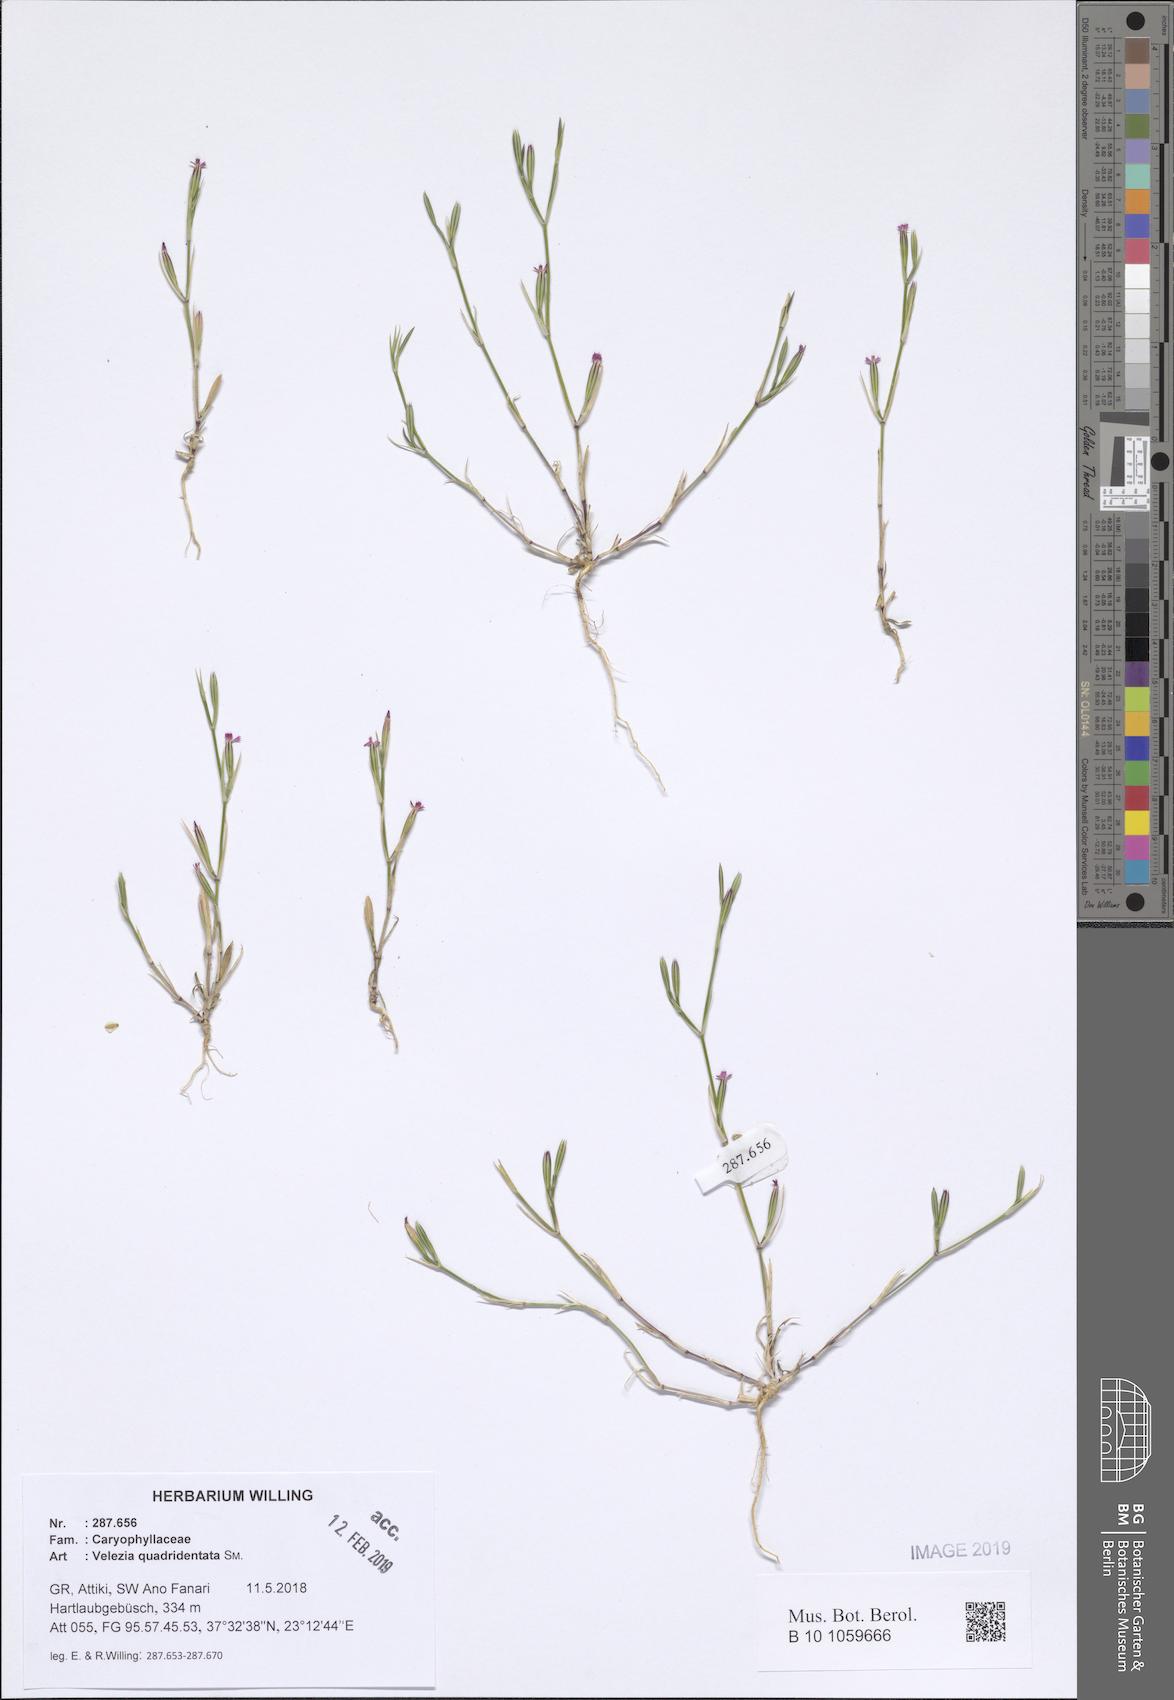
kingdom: Plantae
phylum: Tracheophyta
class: Magnoliopsida
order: Caryophyllales
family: Caryophyllaceae
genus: Dianthus
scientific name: Dianthus quadridentatus
